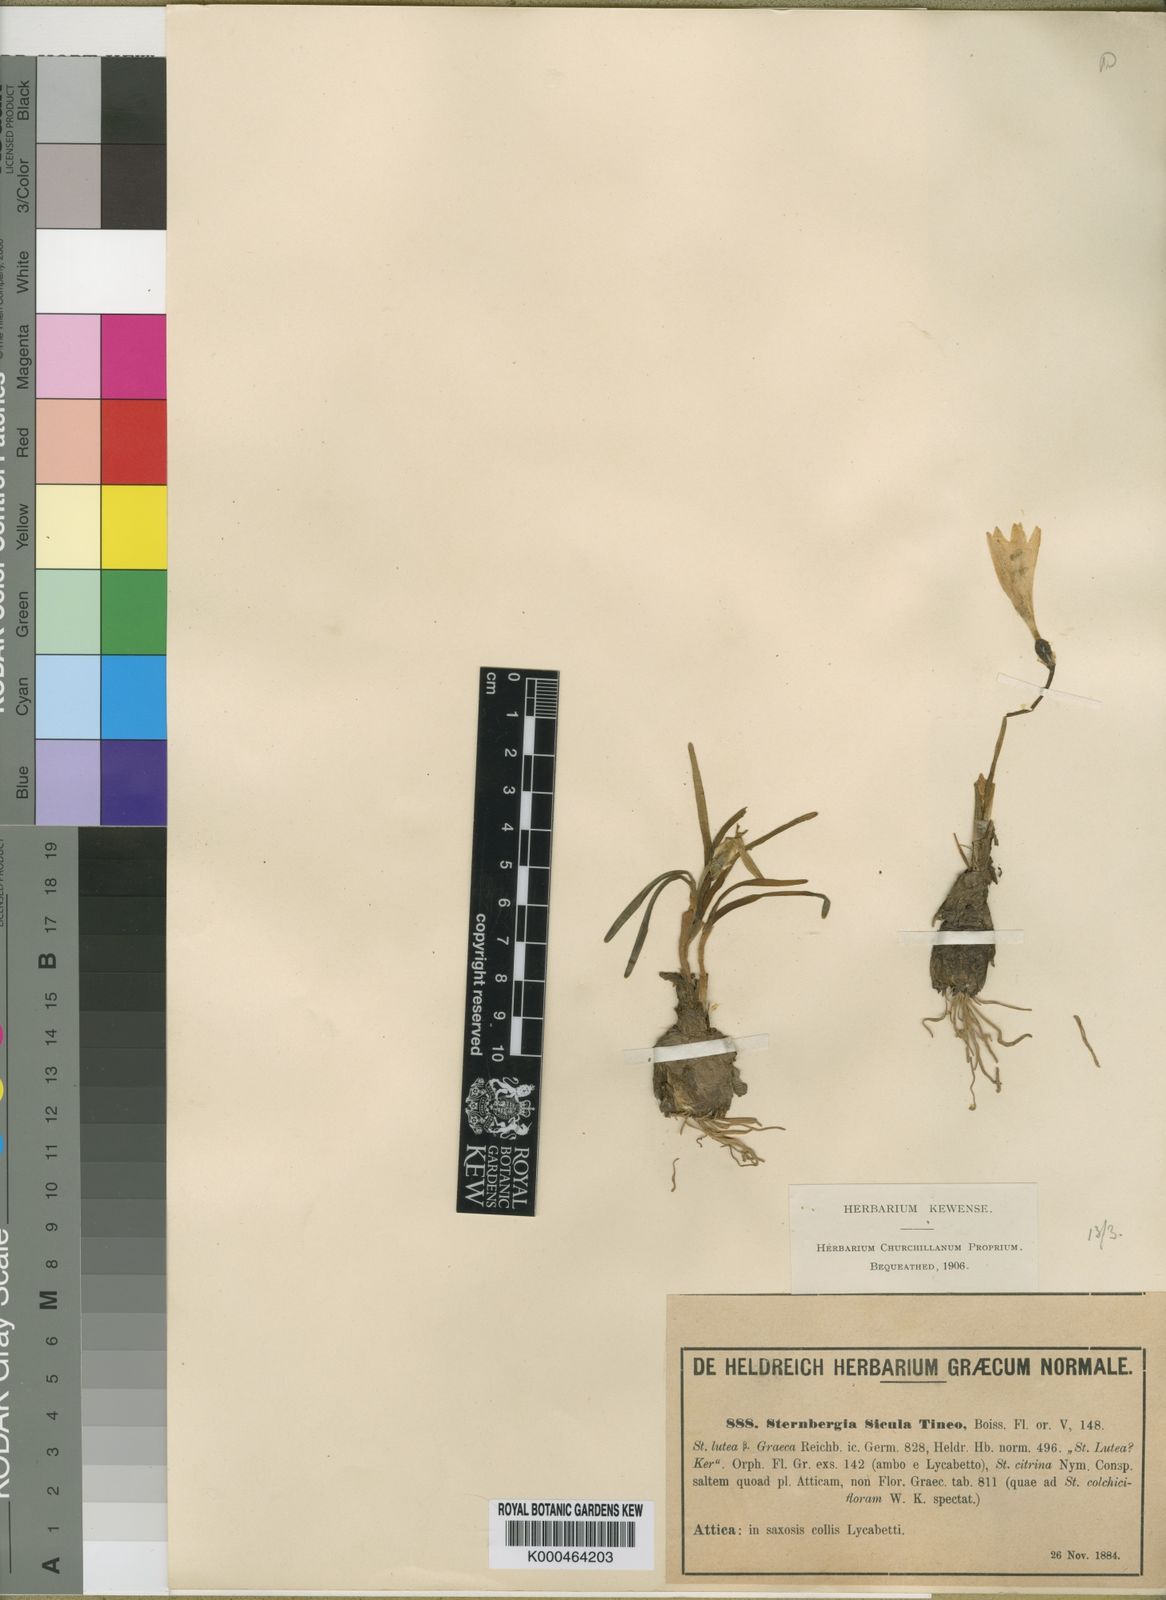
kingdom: Plantae
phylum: Tracheophyta
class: Liliopsida
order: Asparagales
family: Amaryllidaceae
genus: Sternbergia
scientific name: Sternbergia
